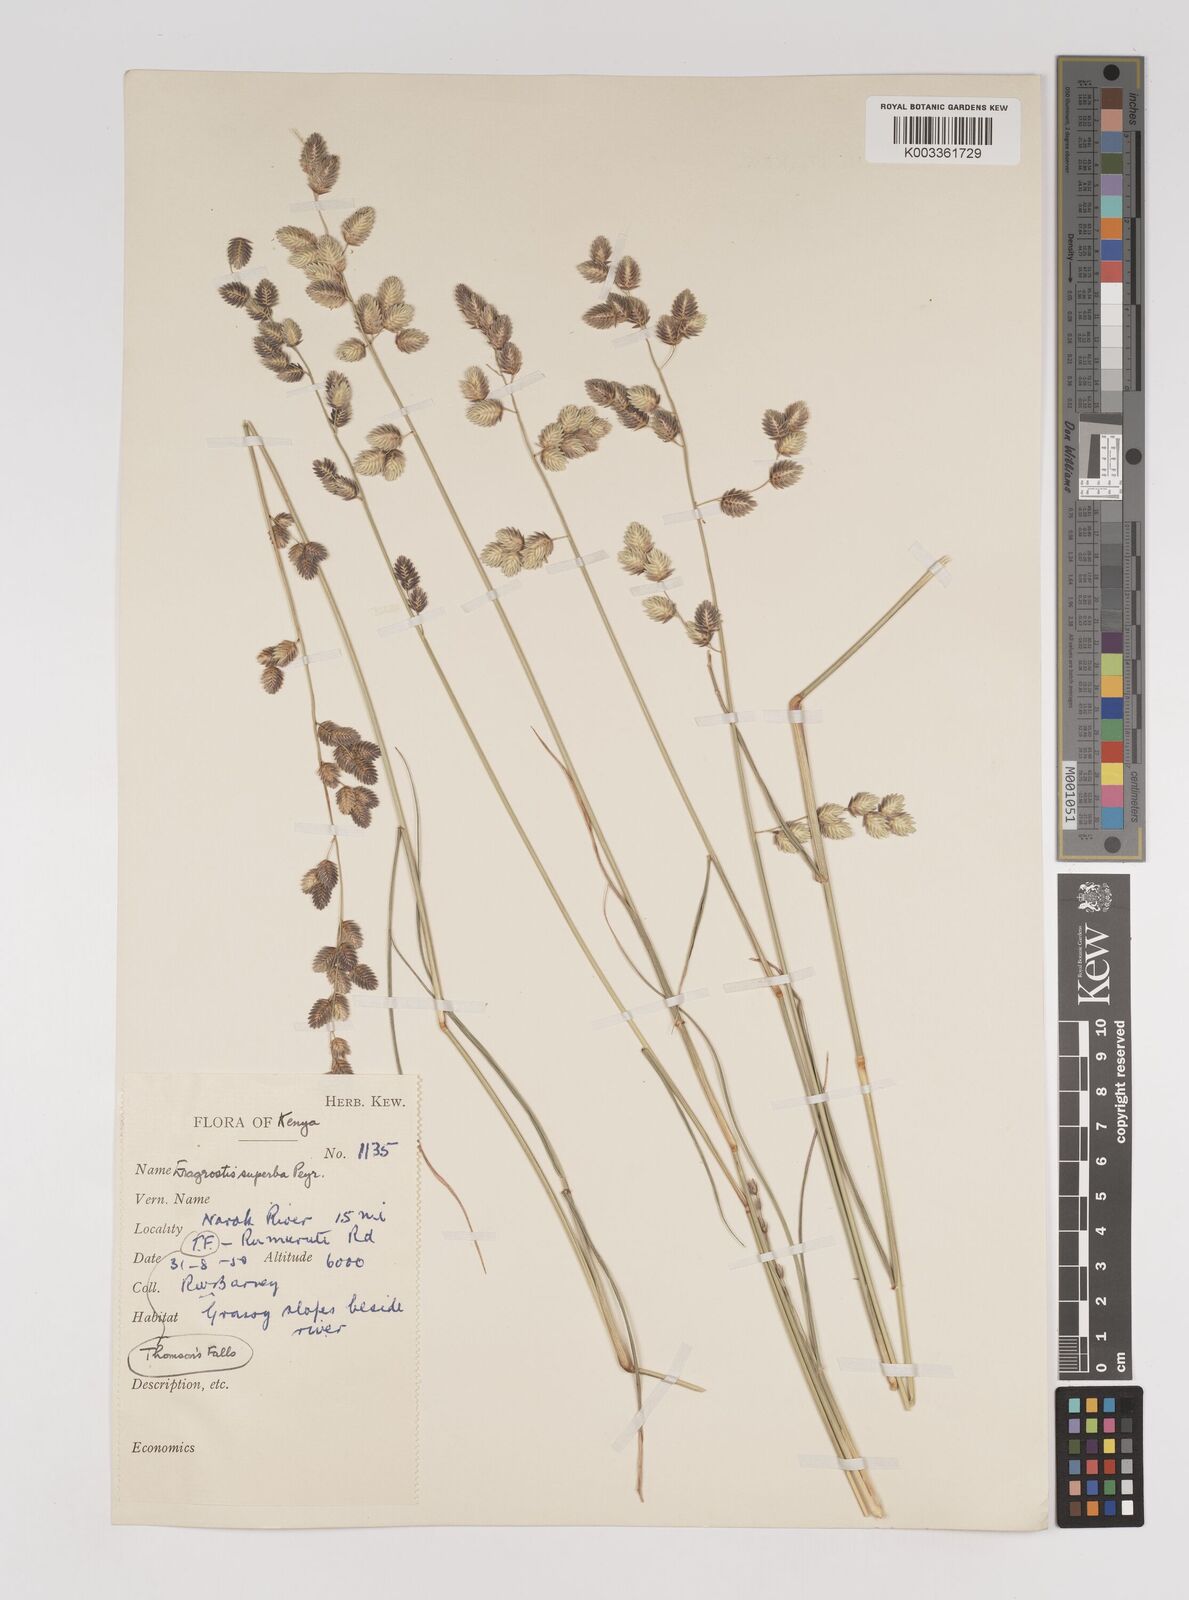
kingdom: Plantae
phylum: Tracheophyta
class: Liliopsida
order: Poales
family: Poaceae
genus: Eragrostis
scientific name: Eragrostis superba
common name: Wilman lovegrass
